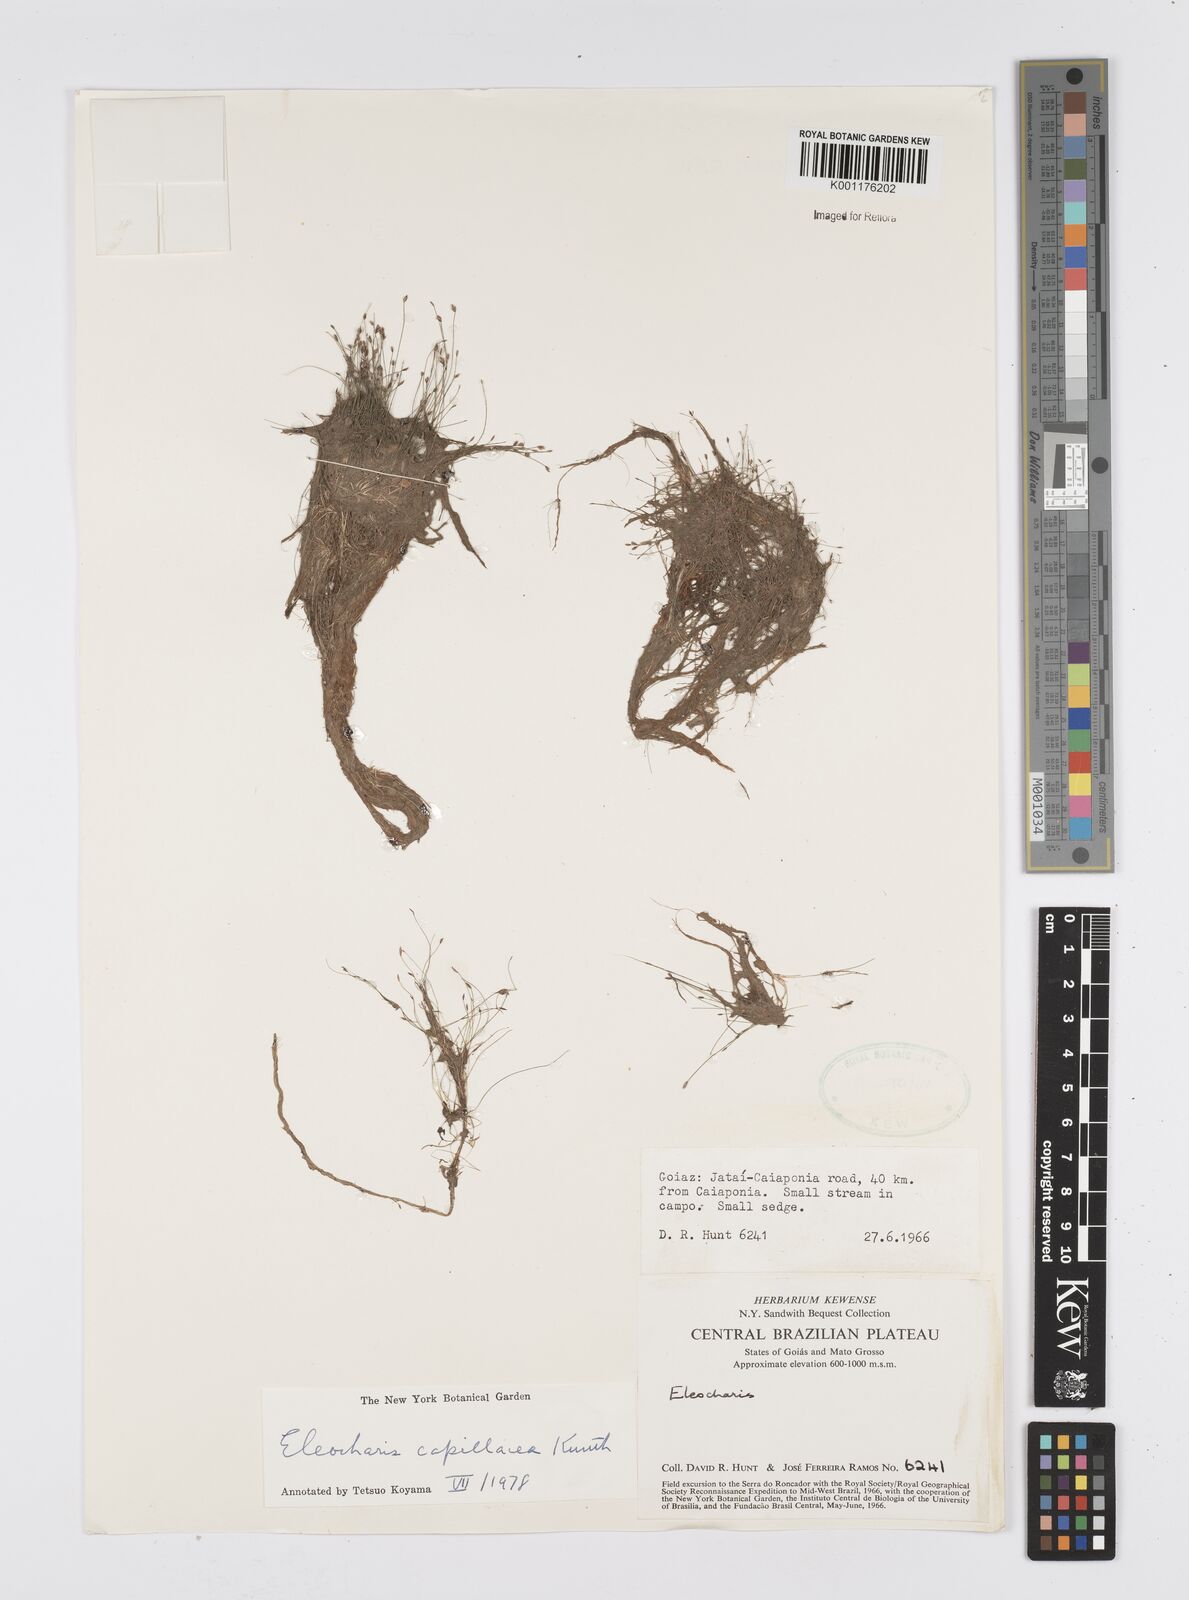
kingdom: Plantae
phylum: Tracheophyta
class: Liliopsida
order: Poales
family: Cyperaceae
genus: Eleocharis
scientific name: Eleocharis capillacea
